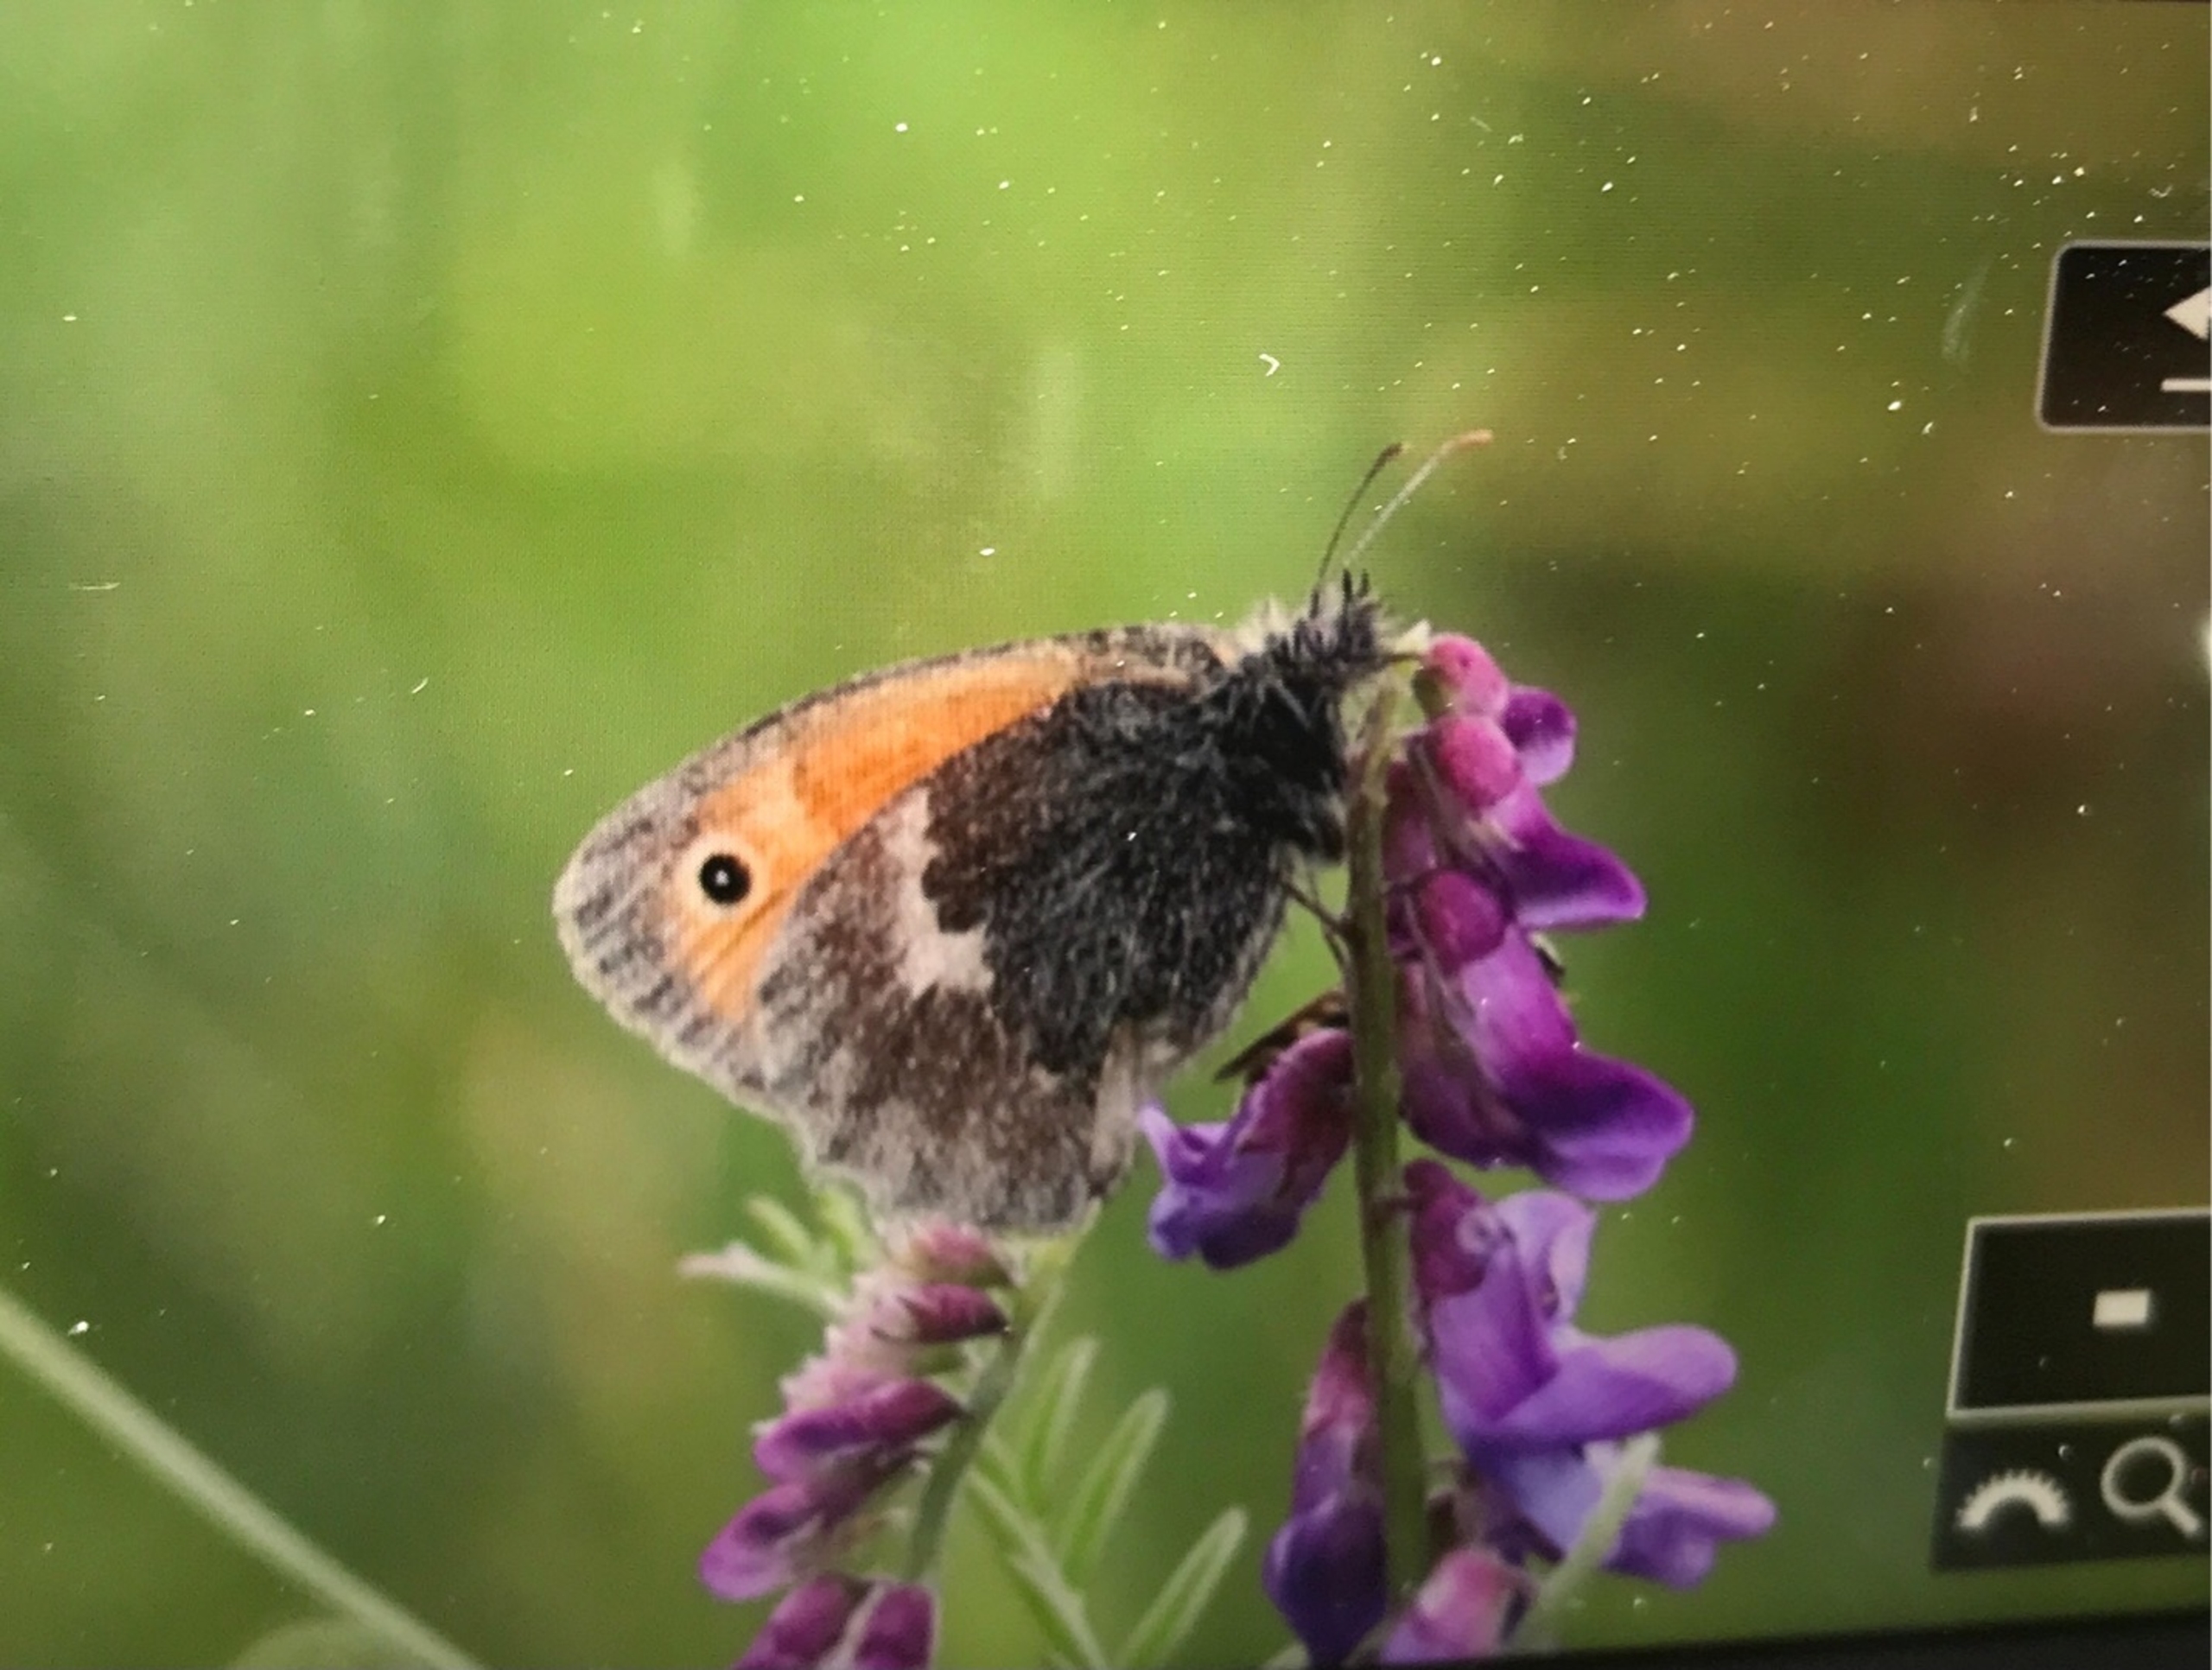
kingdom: Animalia
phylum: Arthropoda
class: Insecta
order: Lepidoptera
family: Nymphalidae
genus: Coenonympha
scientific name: Coenonympha pamphilus
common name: Okkergul randøje
